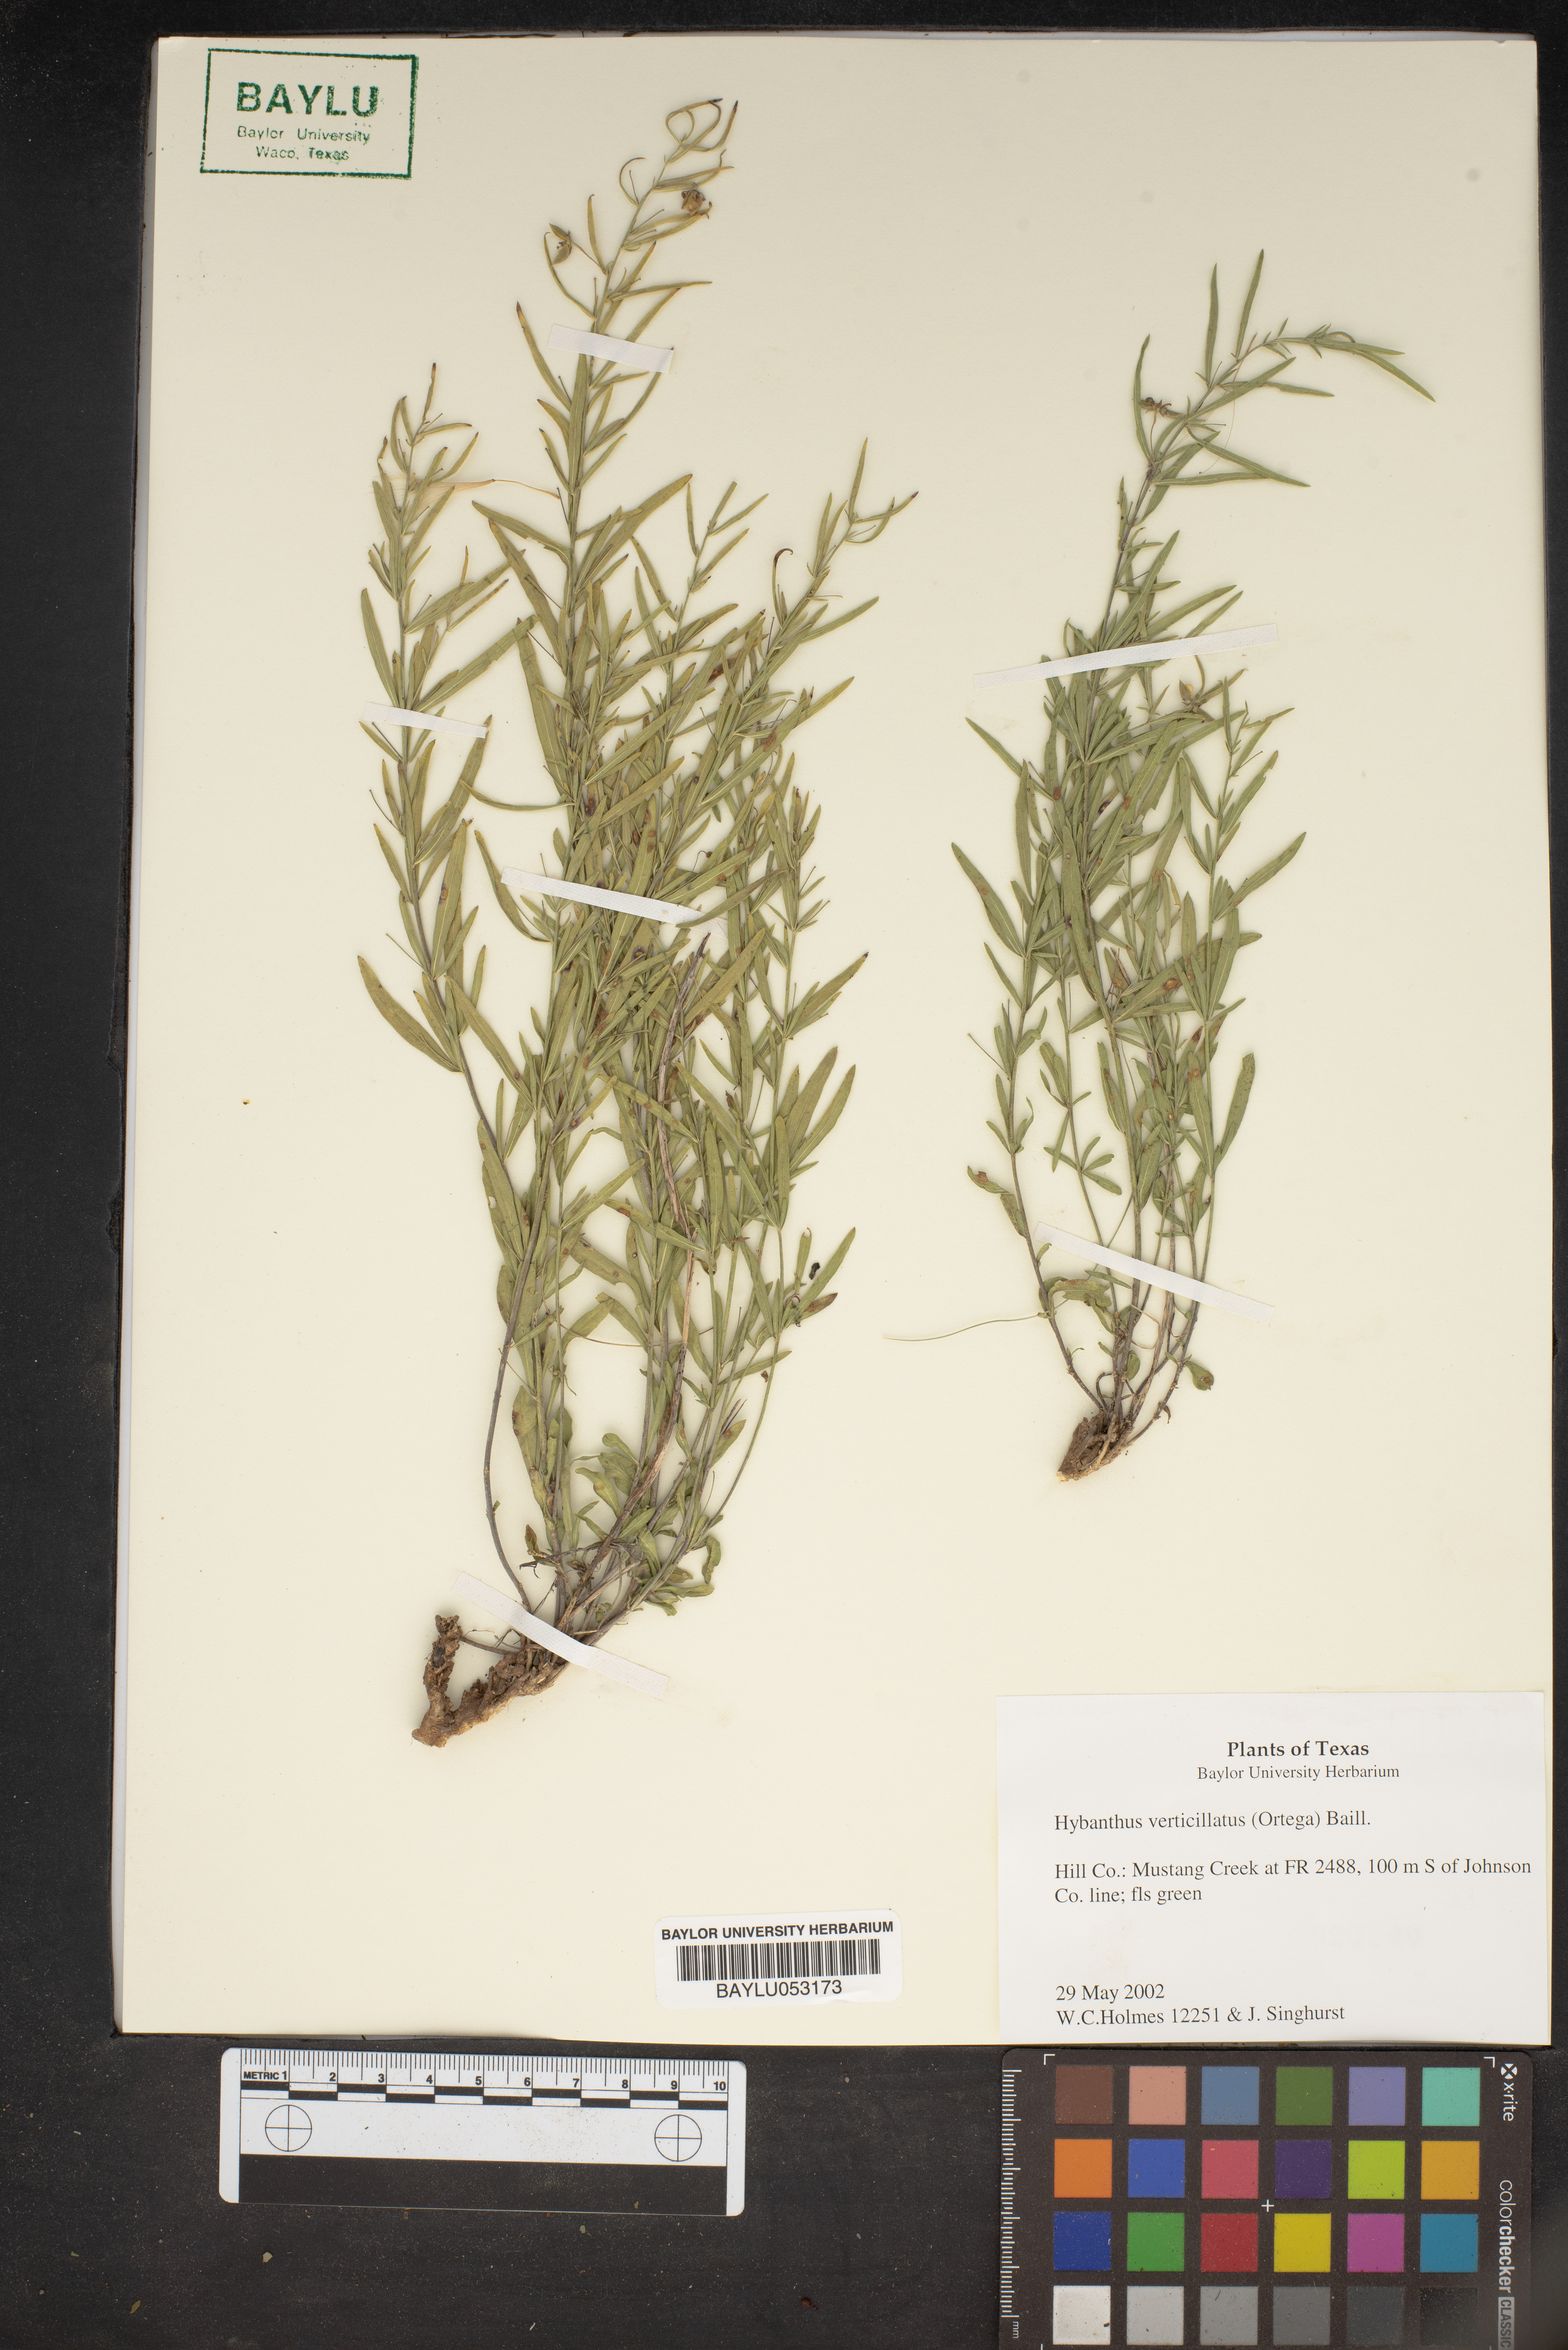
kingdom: Plantae
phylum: Tracheophyta
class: Magnoliopsida
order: Malpighiales
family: Violaceae
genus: Pombalia
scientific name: Pombalia verticillata
